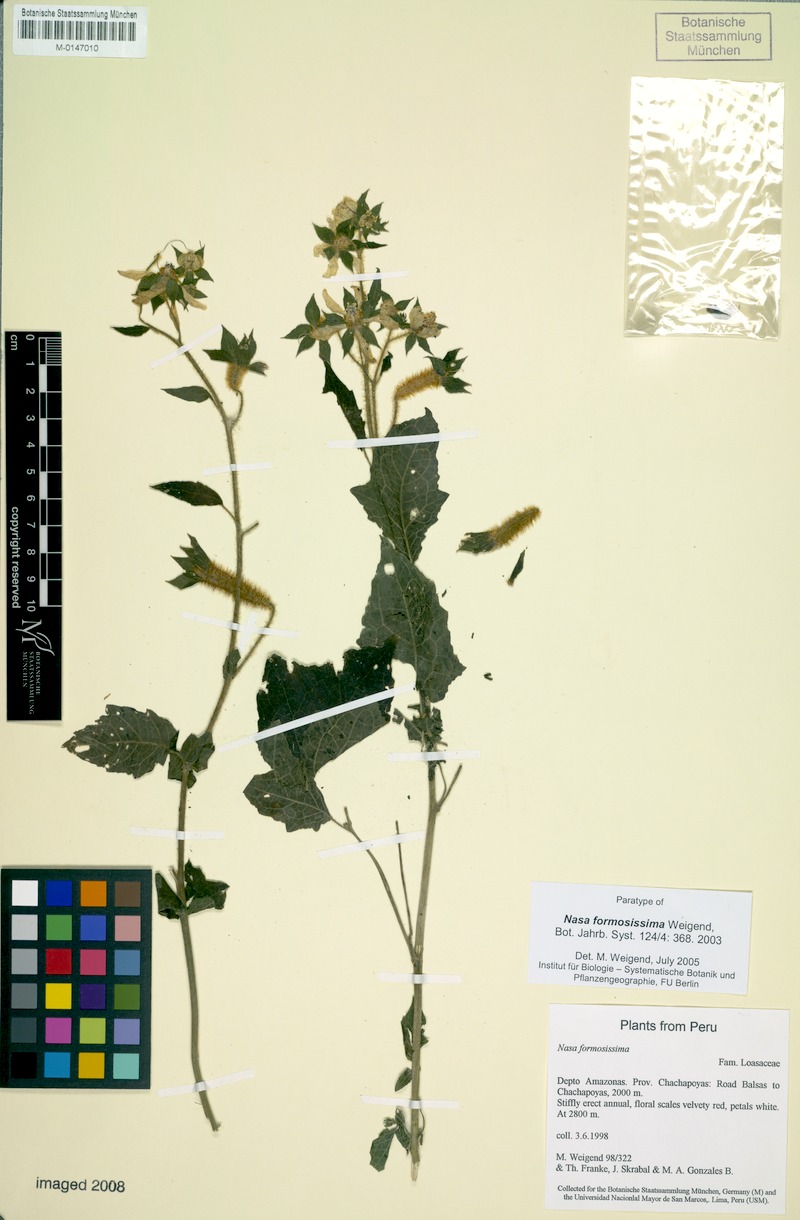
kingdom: Plantae
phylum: Tracheophyta
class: Magnoliopsida
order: Cornales
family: Loasaceae
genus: Nasa
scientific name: Nasa formosissima
